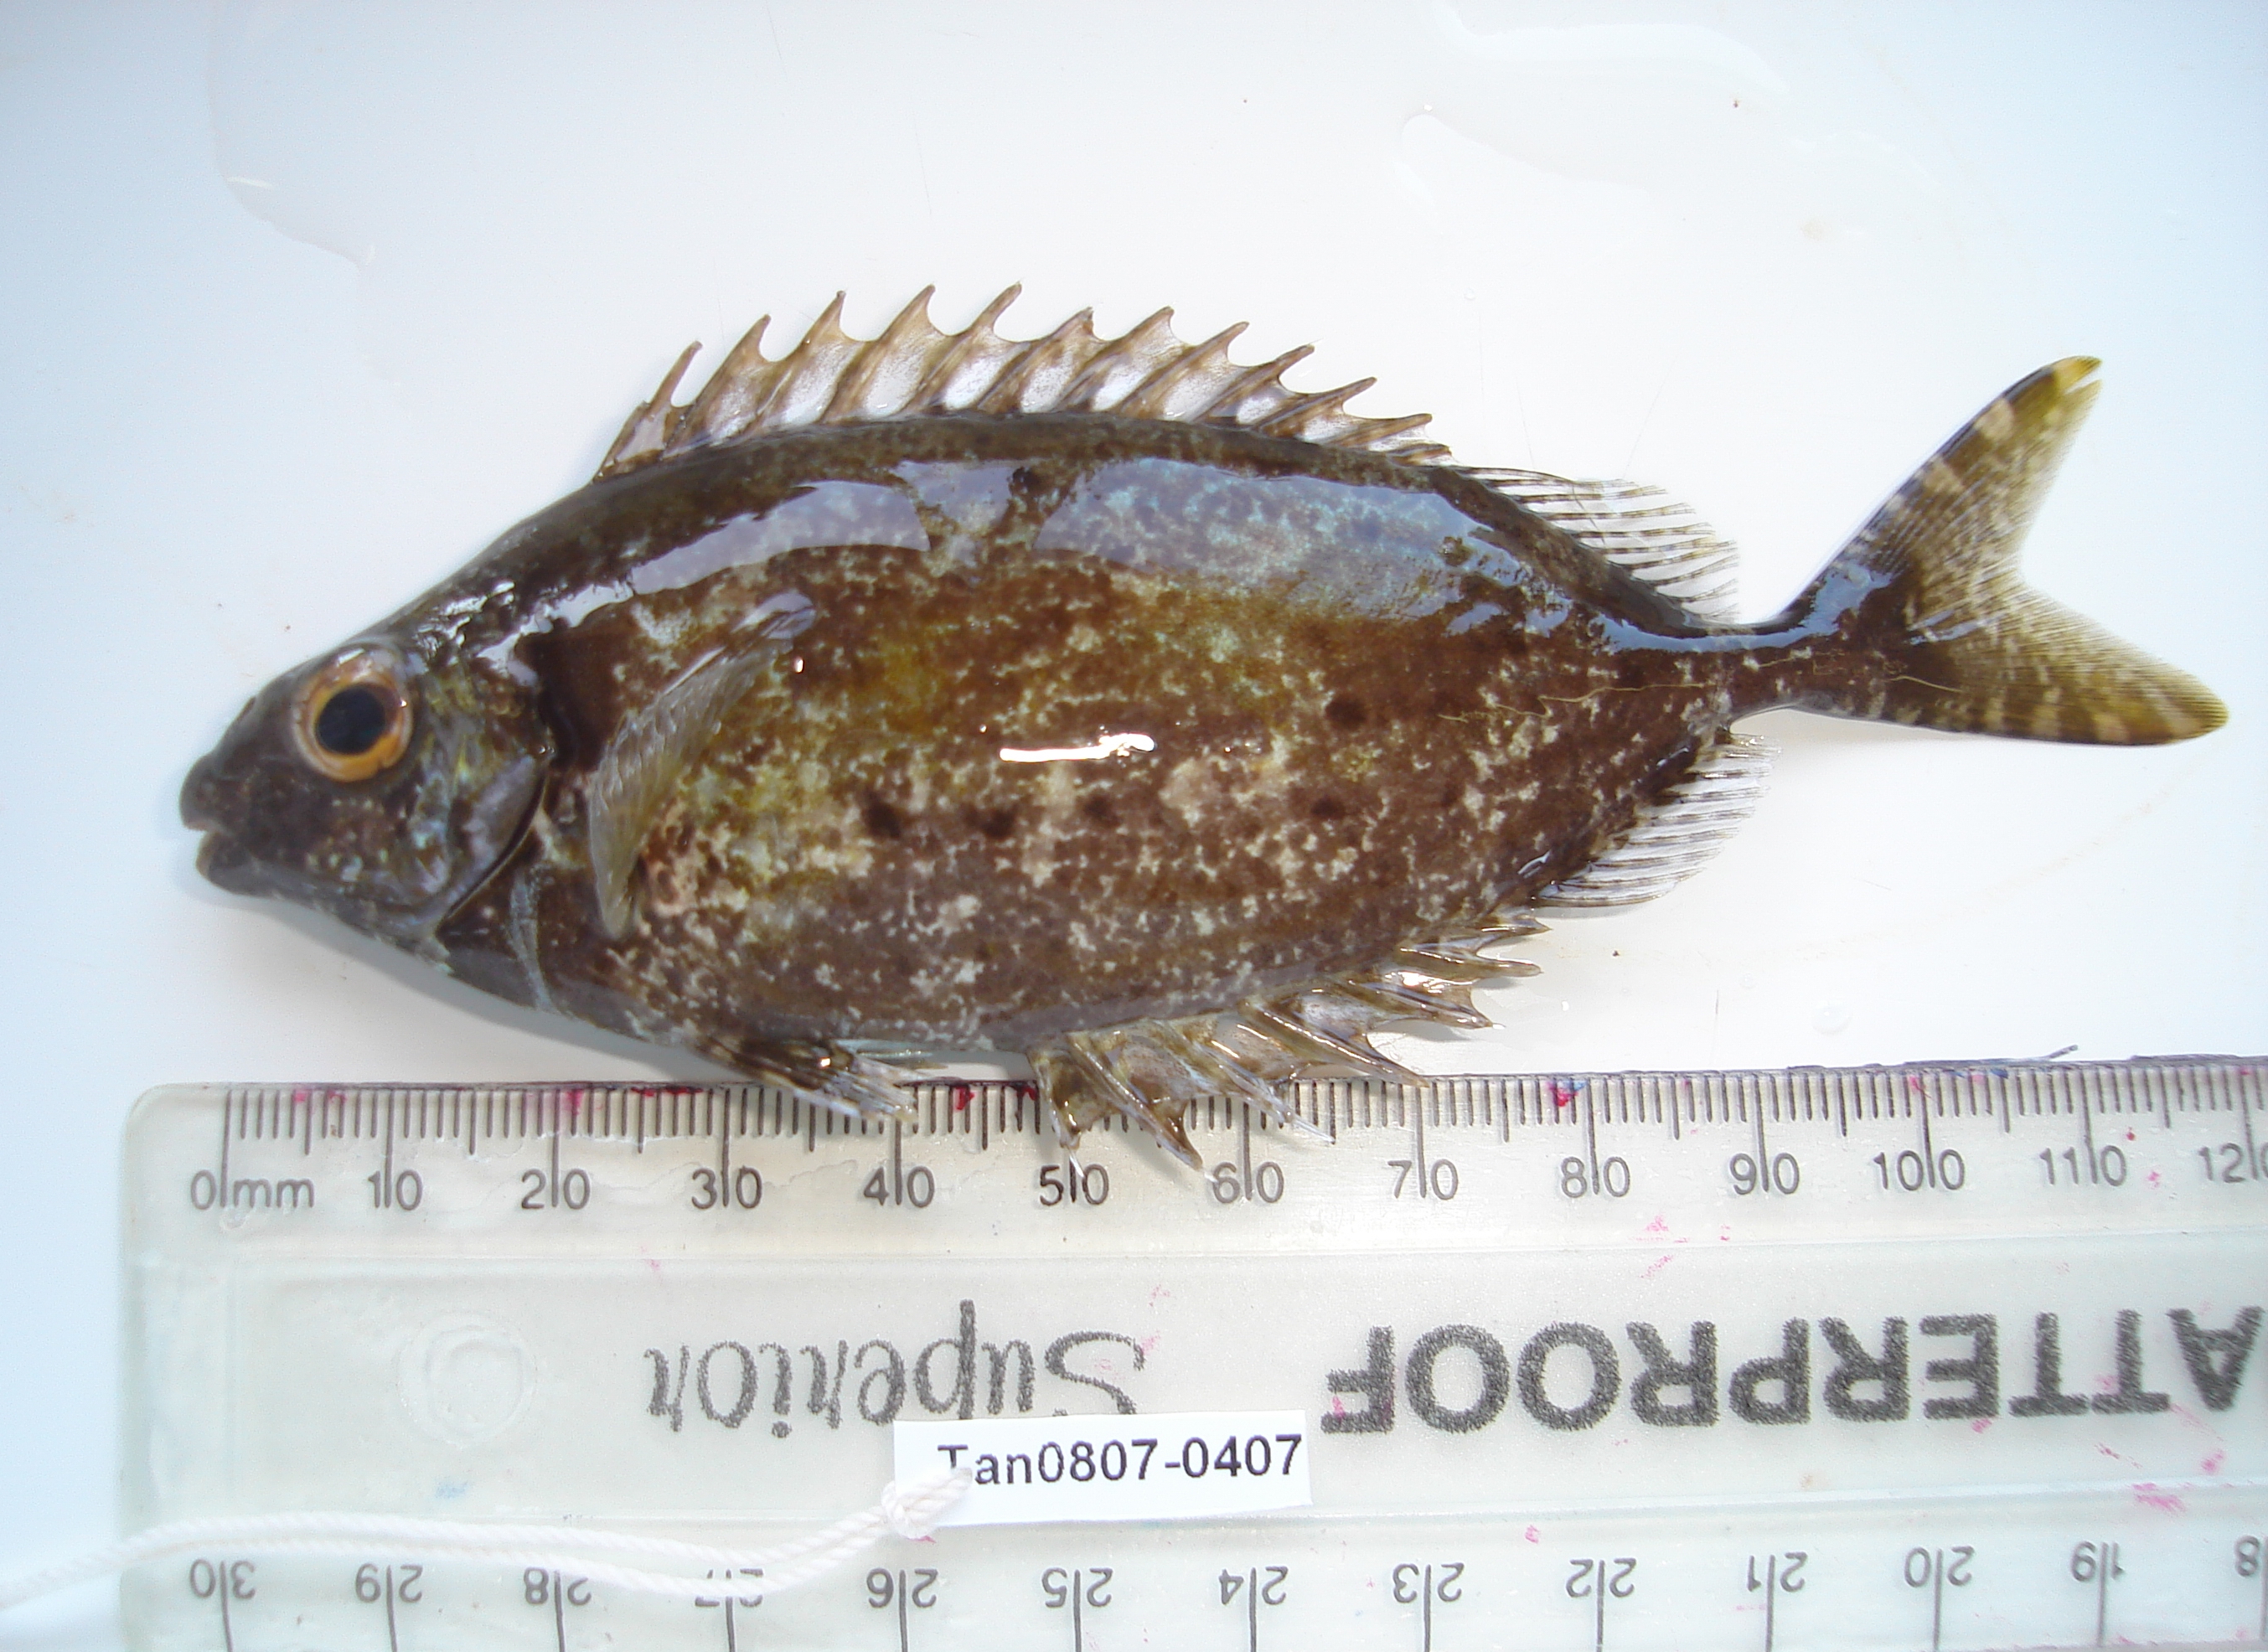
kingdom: Animalia
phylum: Chordata
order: Perciformes
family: Siganidae
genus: Siganus
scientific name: Siganus stellatus
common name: Brown-spotted spinefoot
